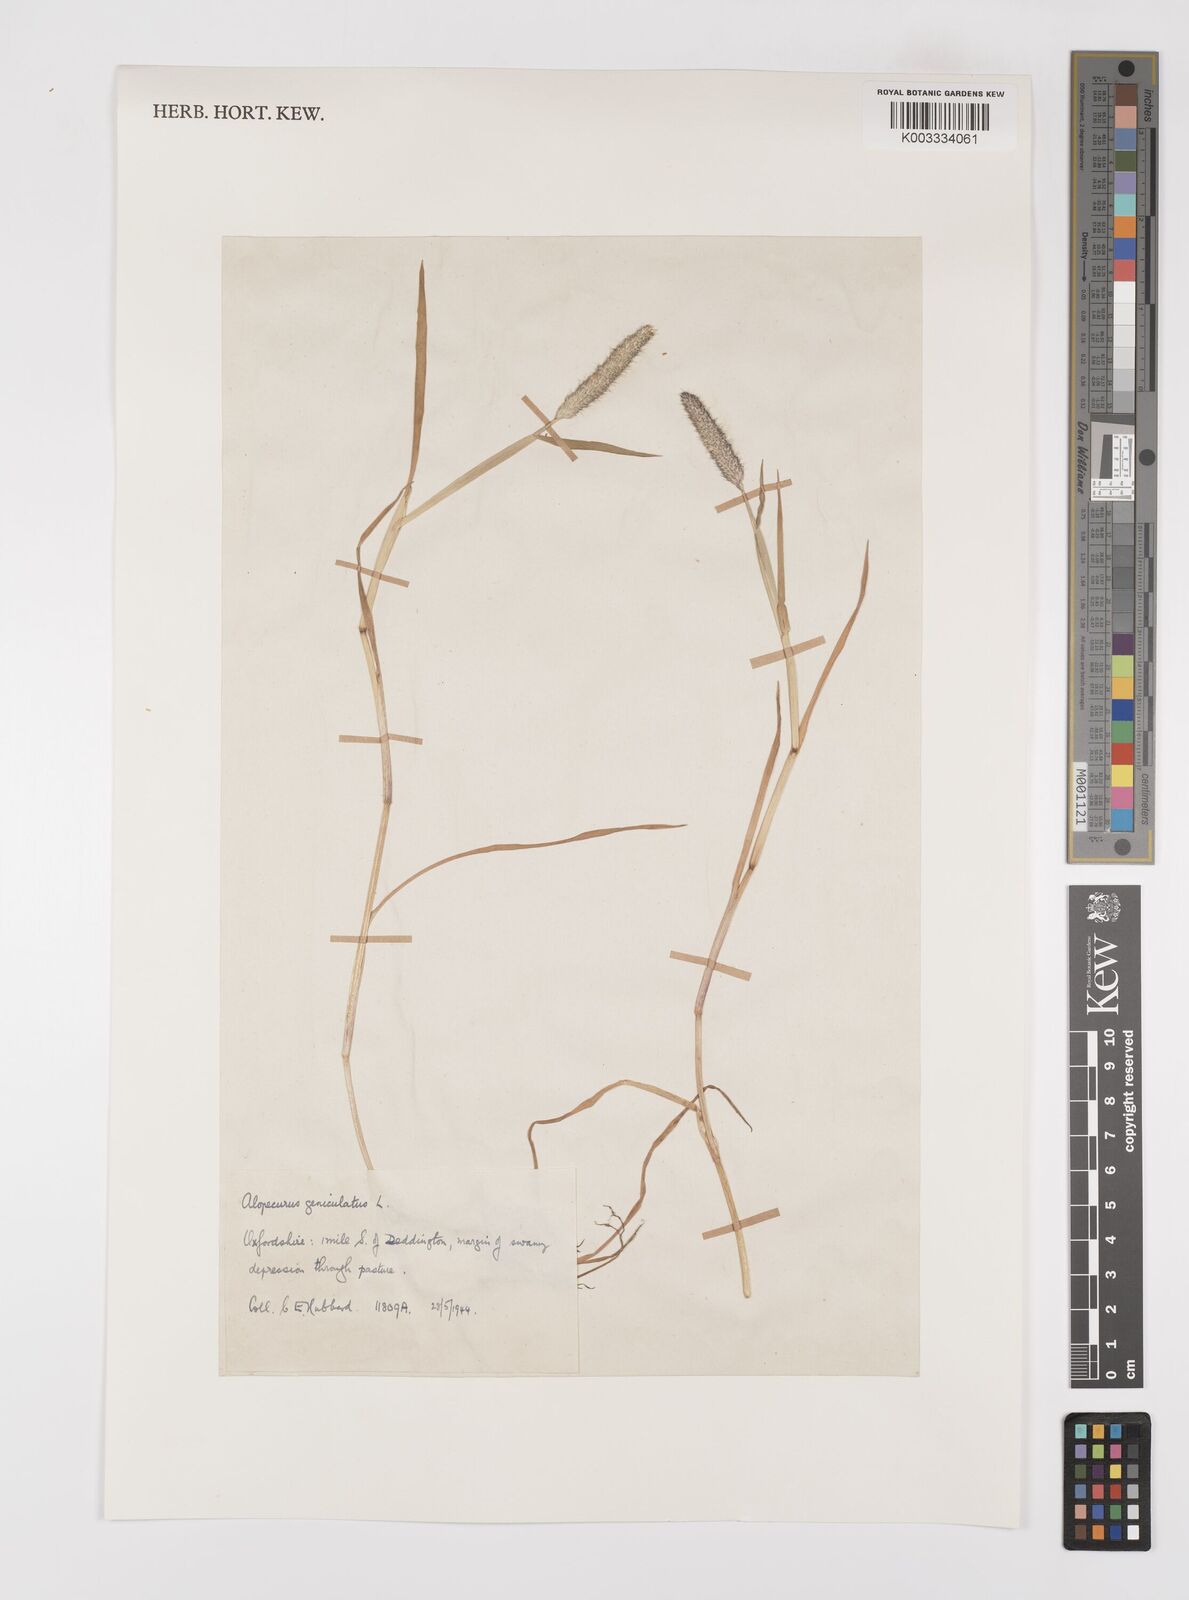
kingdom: Plantae
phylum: Tracheophyta
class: Liliopsida
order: Poales
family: Poaceae
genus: Alopecurus
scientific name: Alopecurus geniculatus
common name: Water foxtail
